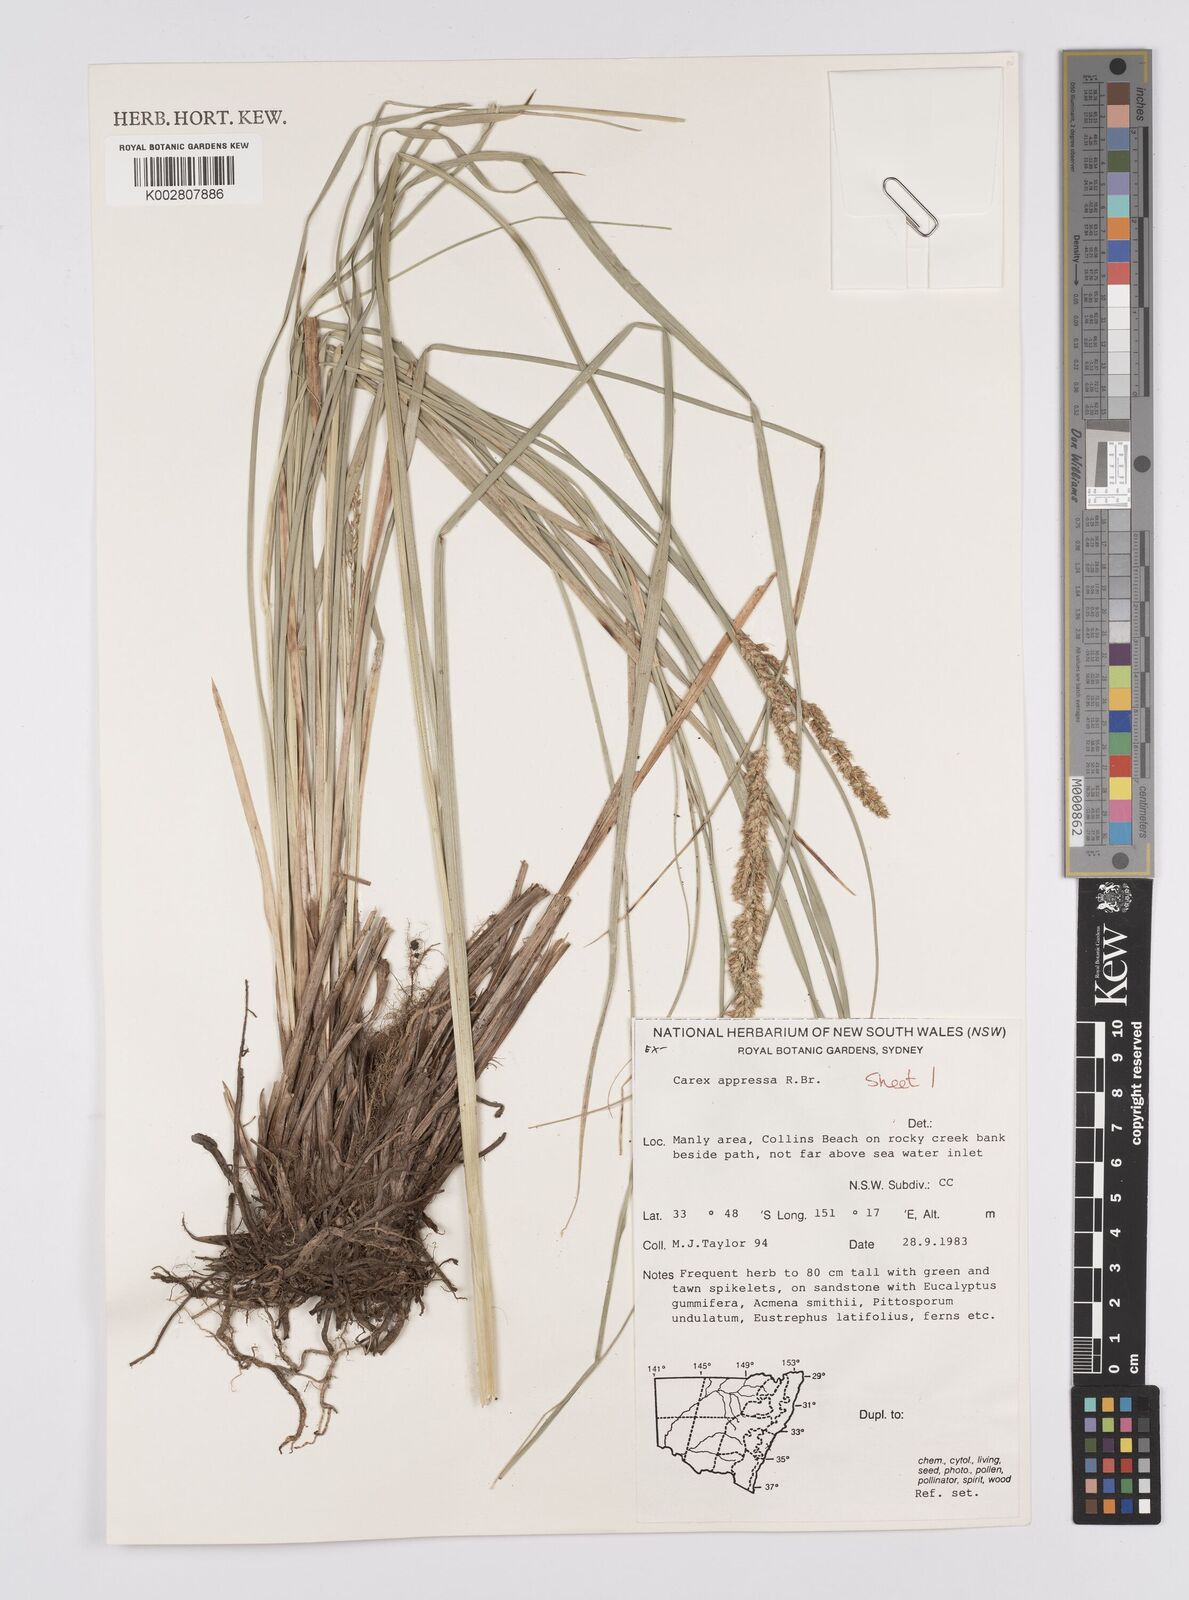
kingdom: Plantae
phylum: Tracheophyta
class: Liliopsida
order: Poales
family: Cyperaceae
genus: Carex
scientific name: Carex appressa
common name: Tussock sedge
